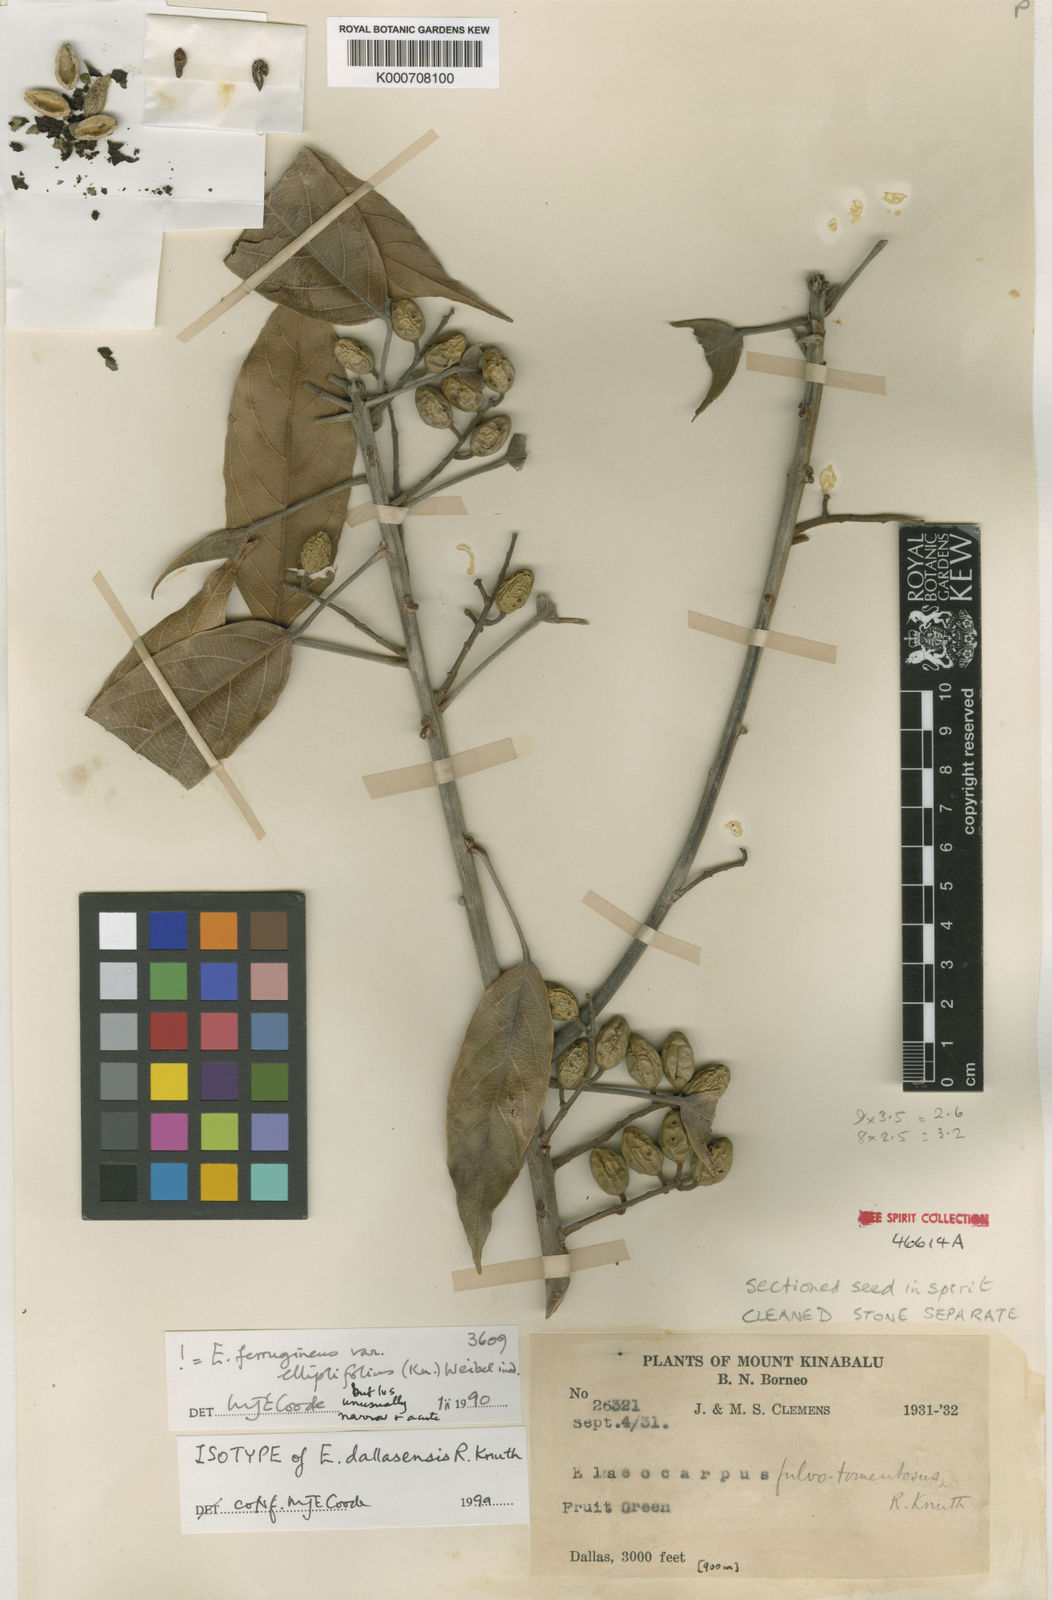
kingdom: Plantae
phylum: Tracheophyta
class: Magnoliopsida
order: Oxalidales
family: Elaeocarpaceae
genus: Elaeocarpus
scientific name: Elaeocarpus ferrugineus
